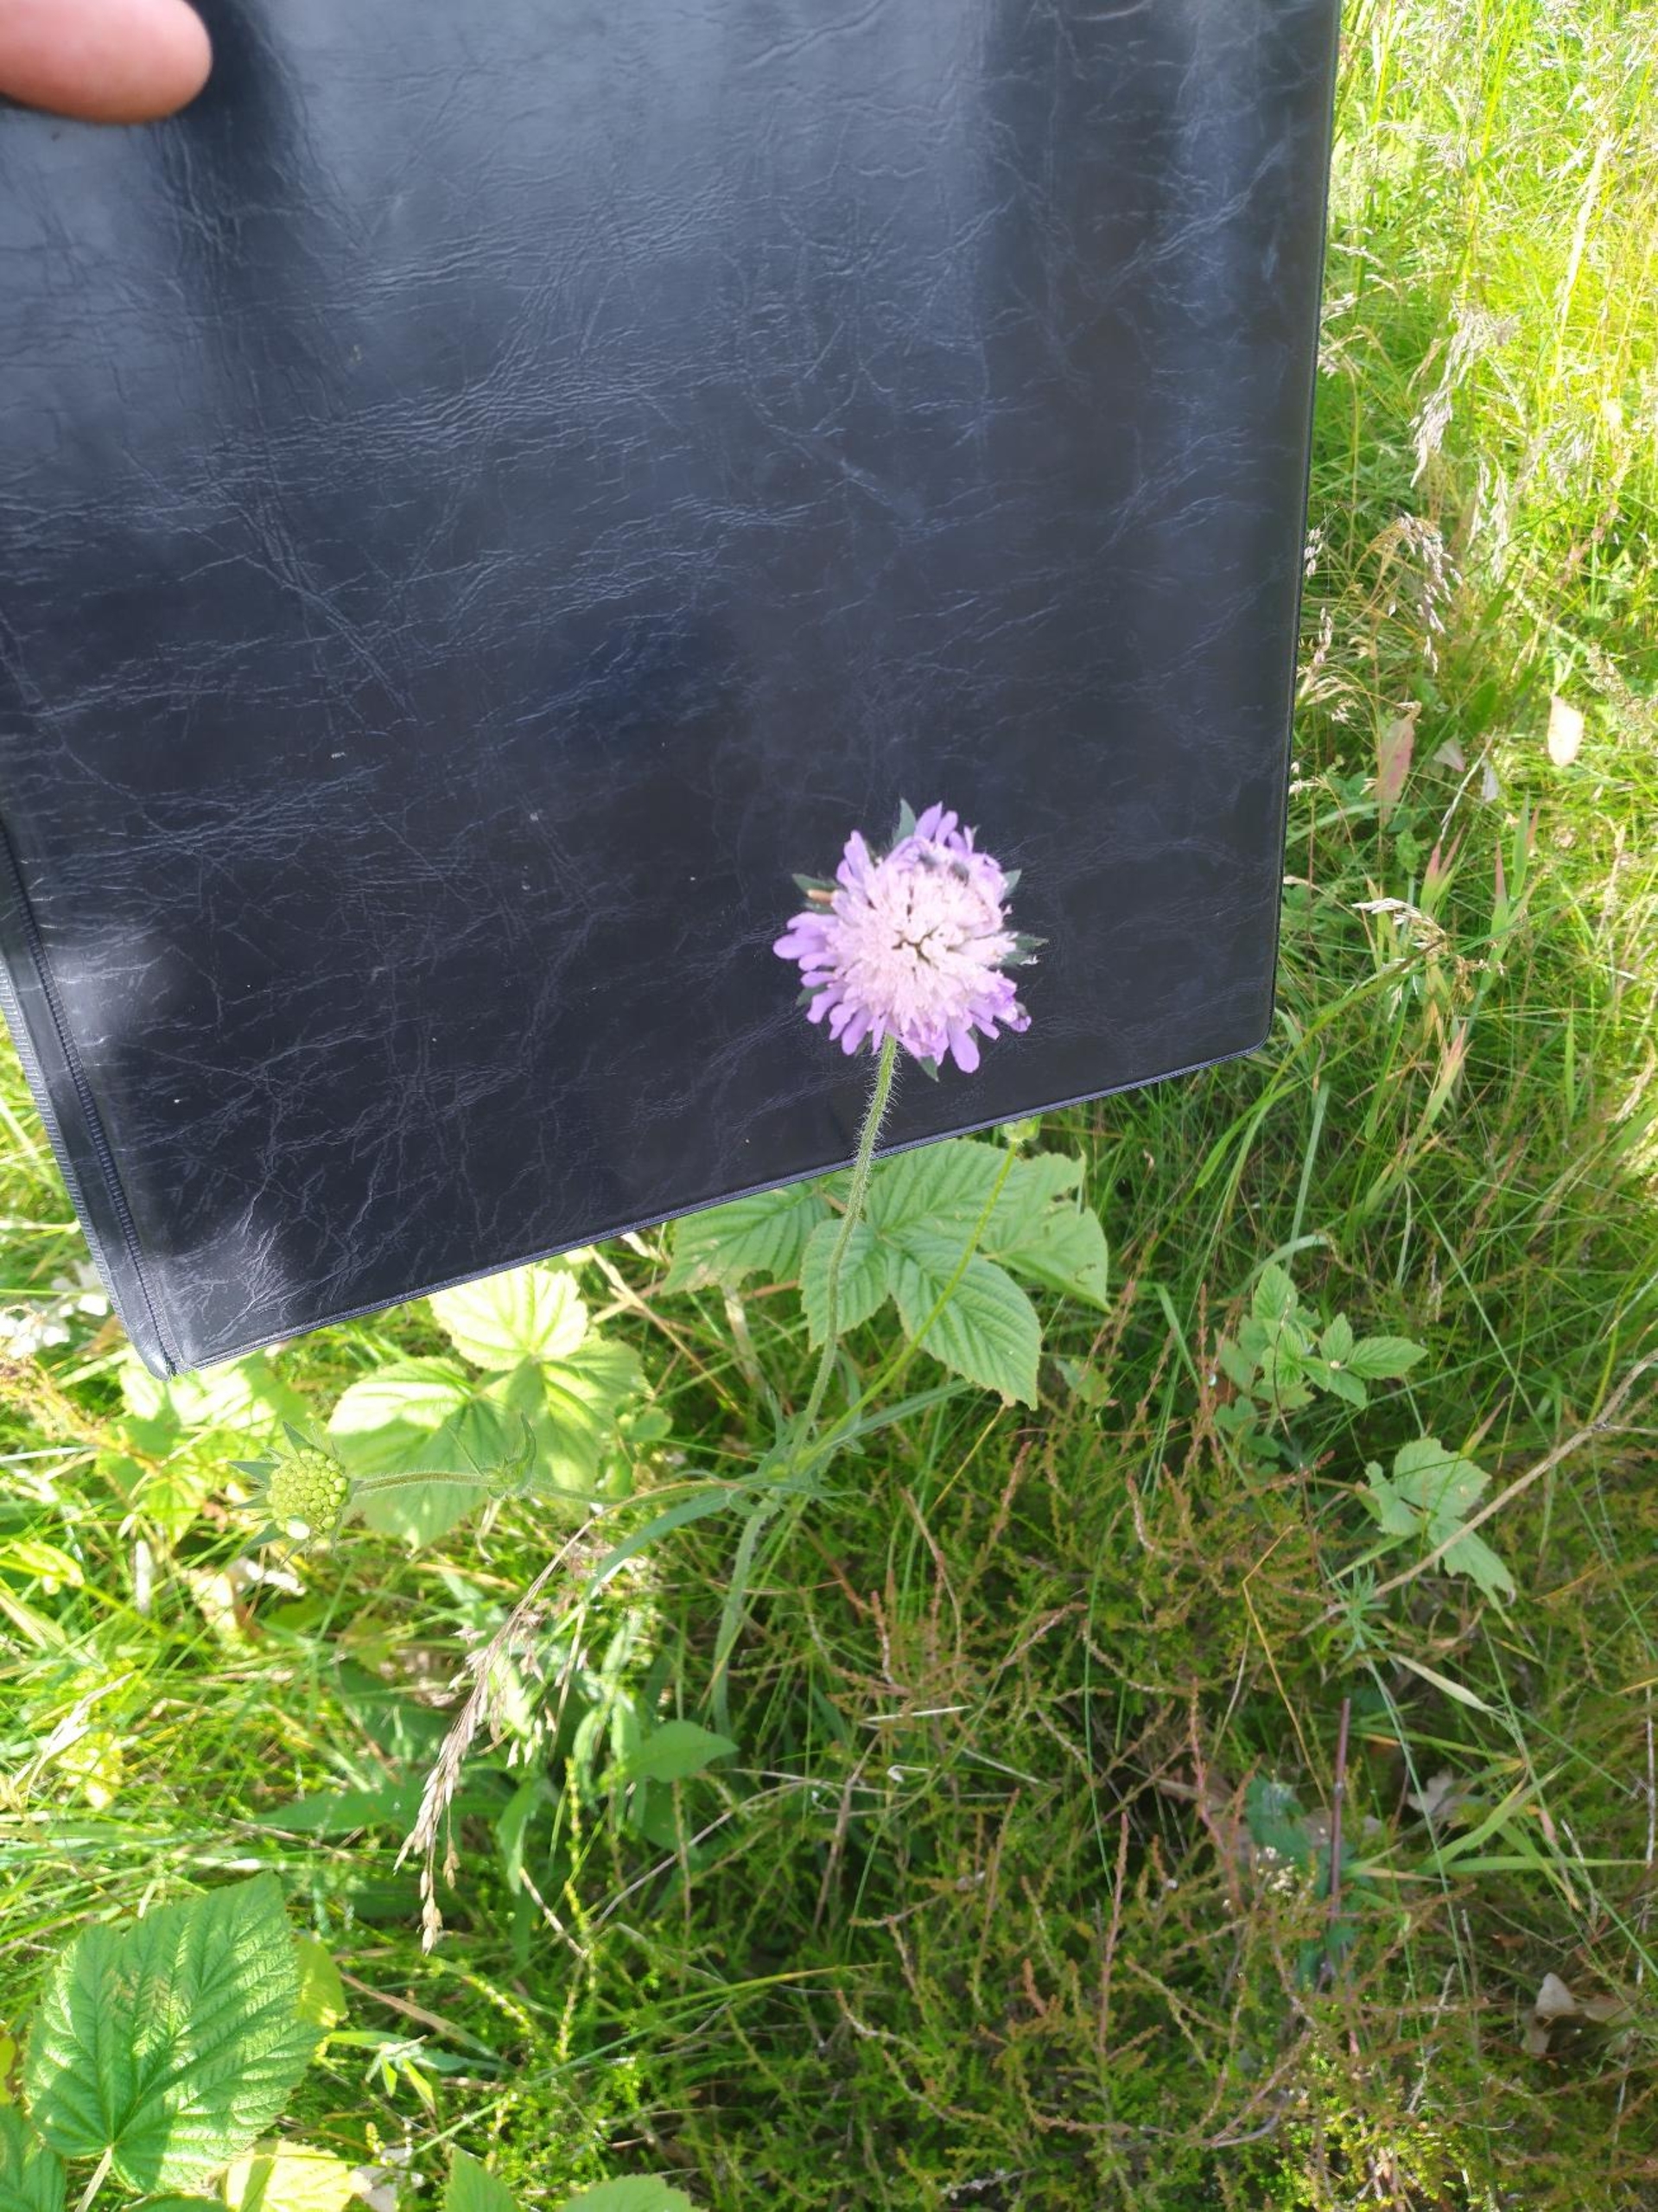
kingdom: Plantae
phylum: Tracheophyta
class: Magnoliopsida
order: Dipsacales
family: Caprifoliaceae
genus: Knautia
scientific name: Knautia arvensis
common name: Blåhat
